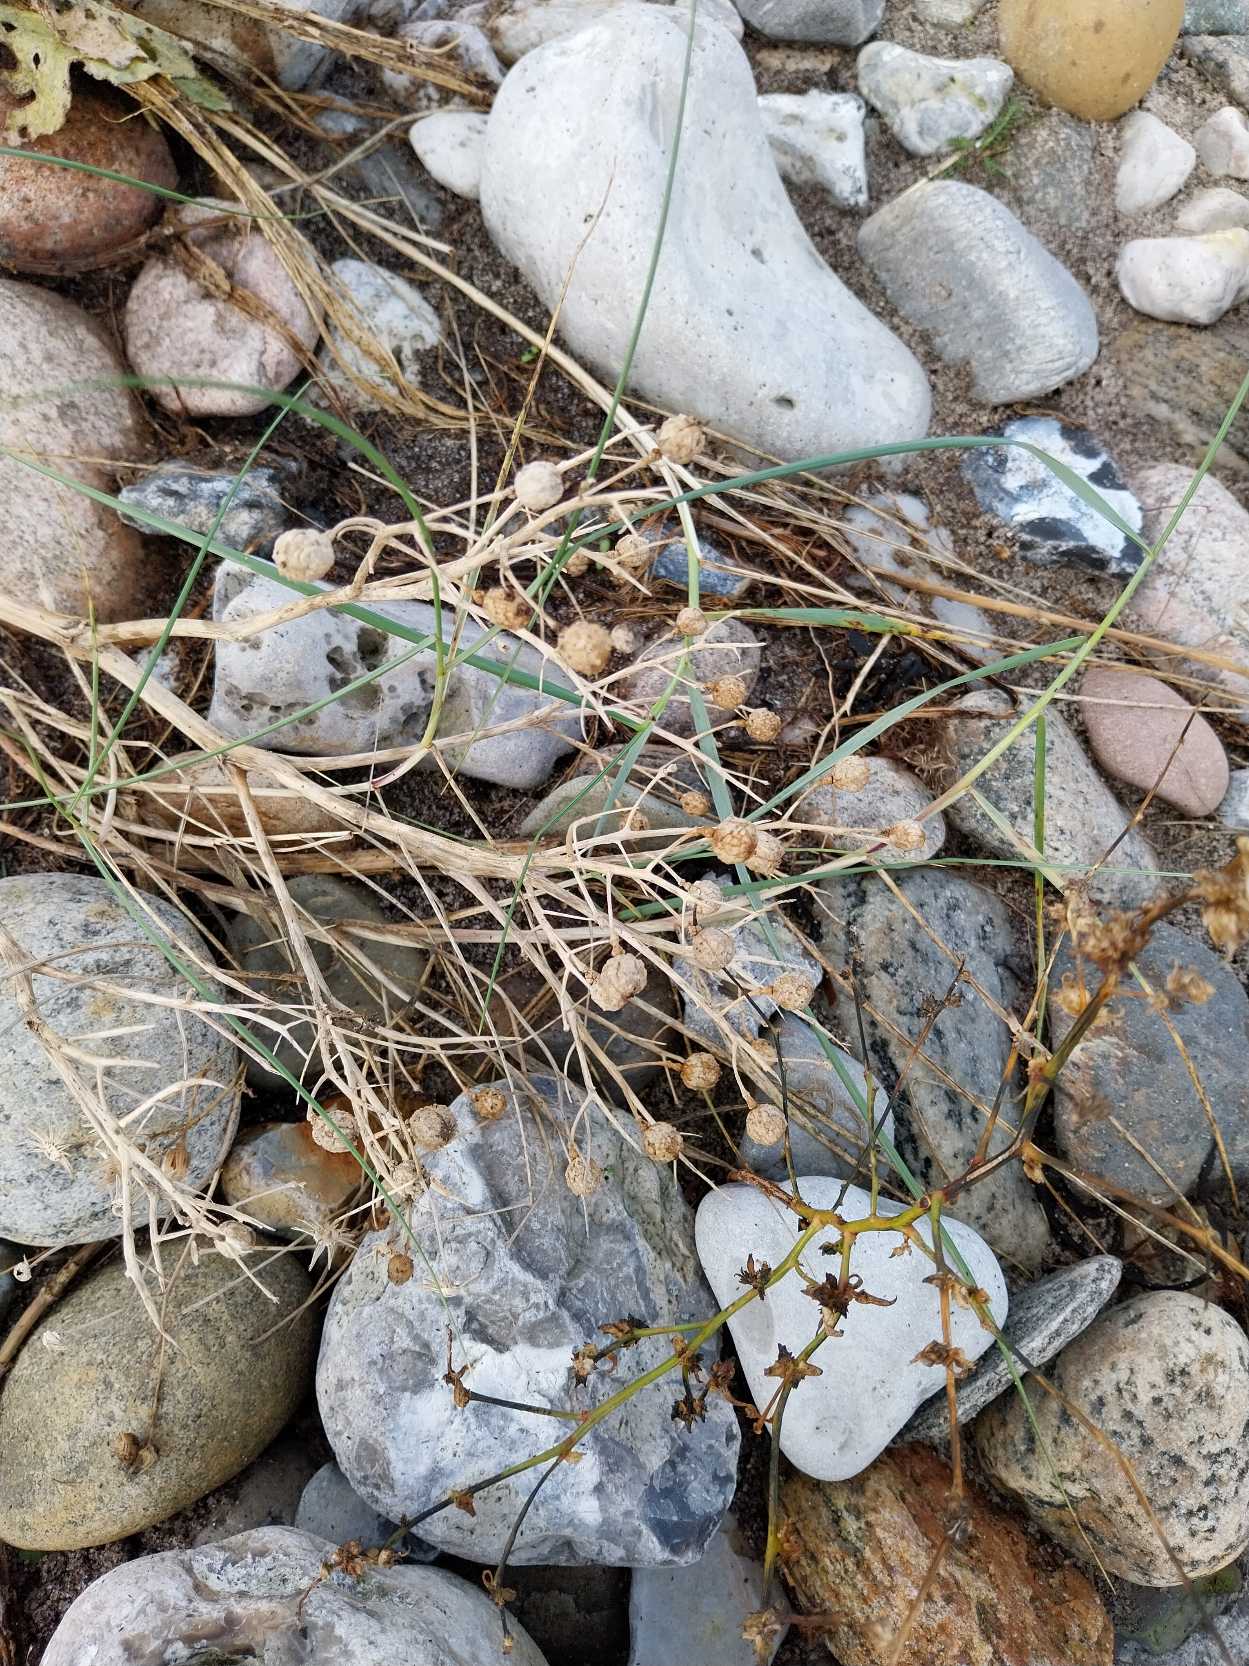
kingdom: Plantae
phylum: Tracheophyta
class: Magnoliopsida
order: Brassicales
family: Brassicaceae
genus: Crambe
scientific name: Crambe maritima
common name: Strandkål
